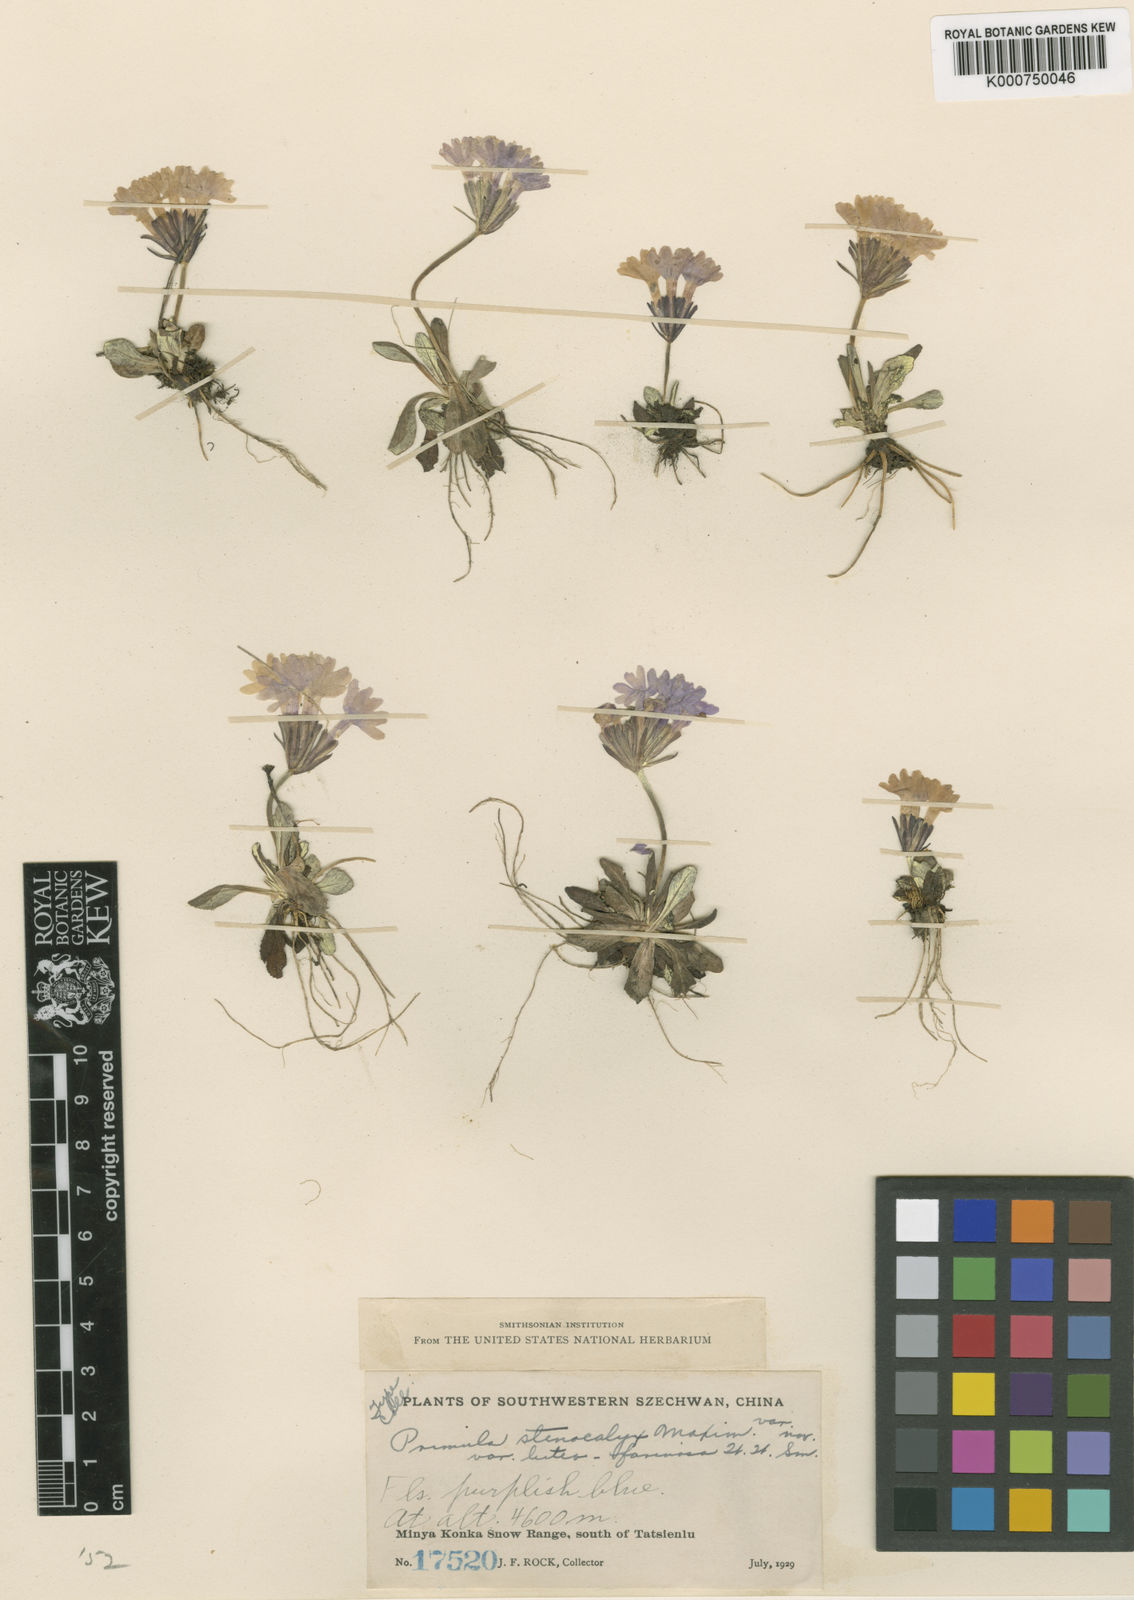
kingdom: Plantae
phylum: Tracheophyta
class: Magnoliopsida
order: Ericales
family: Primulaceae
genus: Primula
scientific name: Primula stenocalyx
